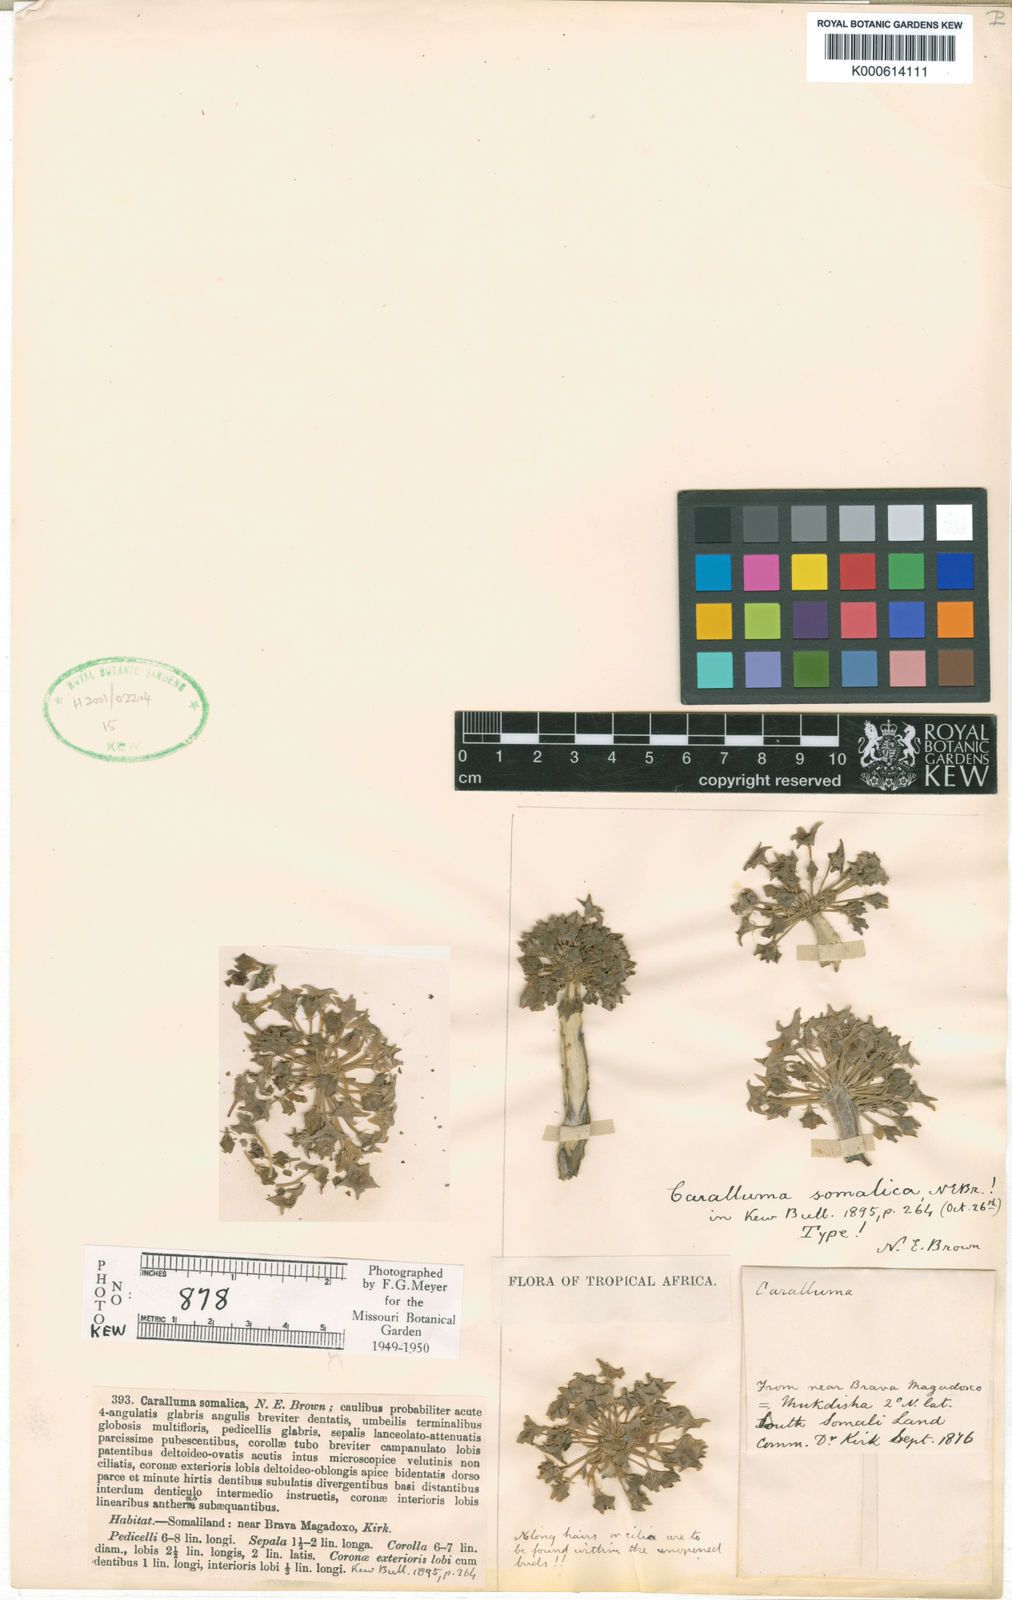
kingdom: Plantae
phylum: Tracheophyta
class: Magnoliopsida
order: Gentianales
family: Apocynaceae
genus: Ceropegia
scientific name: Ceropegia somalicoides
